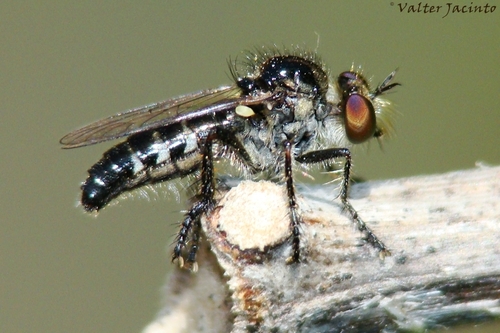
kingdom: Animalia
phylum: Arthropoda
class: Insecta
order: Diptera
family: Asilidae
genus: Holopogon
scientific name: Holopogon
